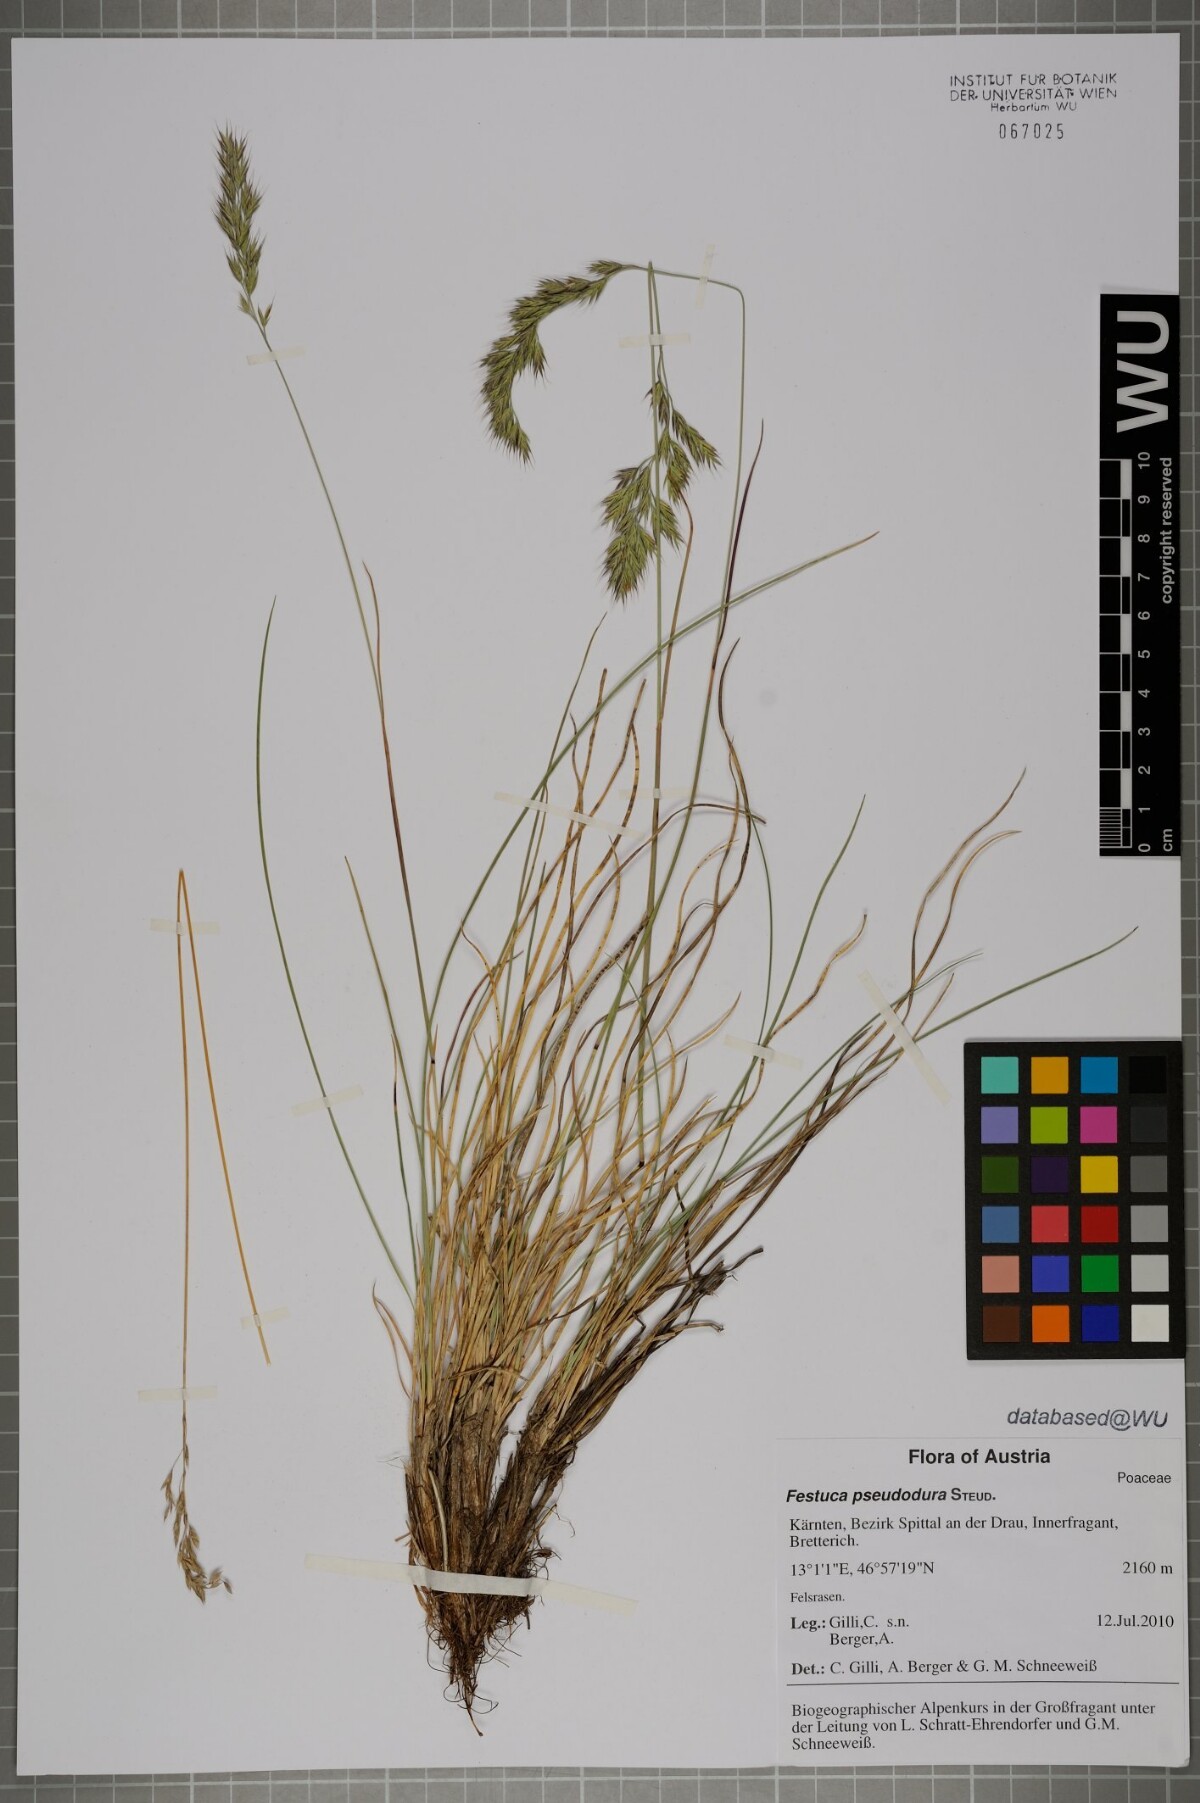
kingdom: Plantae
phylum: Tracheophyta
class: Liliopsida
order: Poales
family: Poaceae
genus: Festuca
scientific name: Festuca pseudodura
